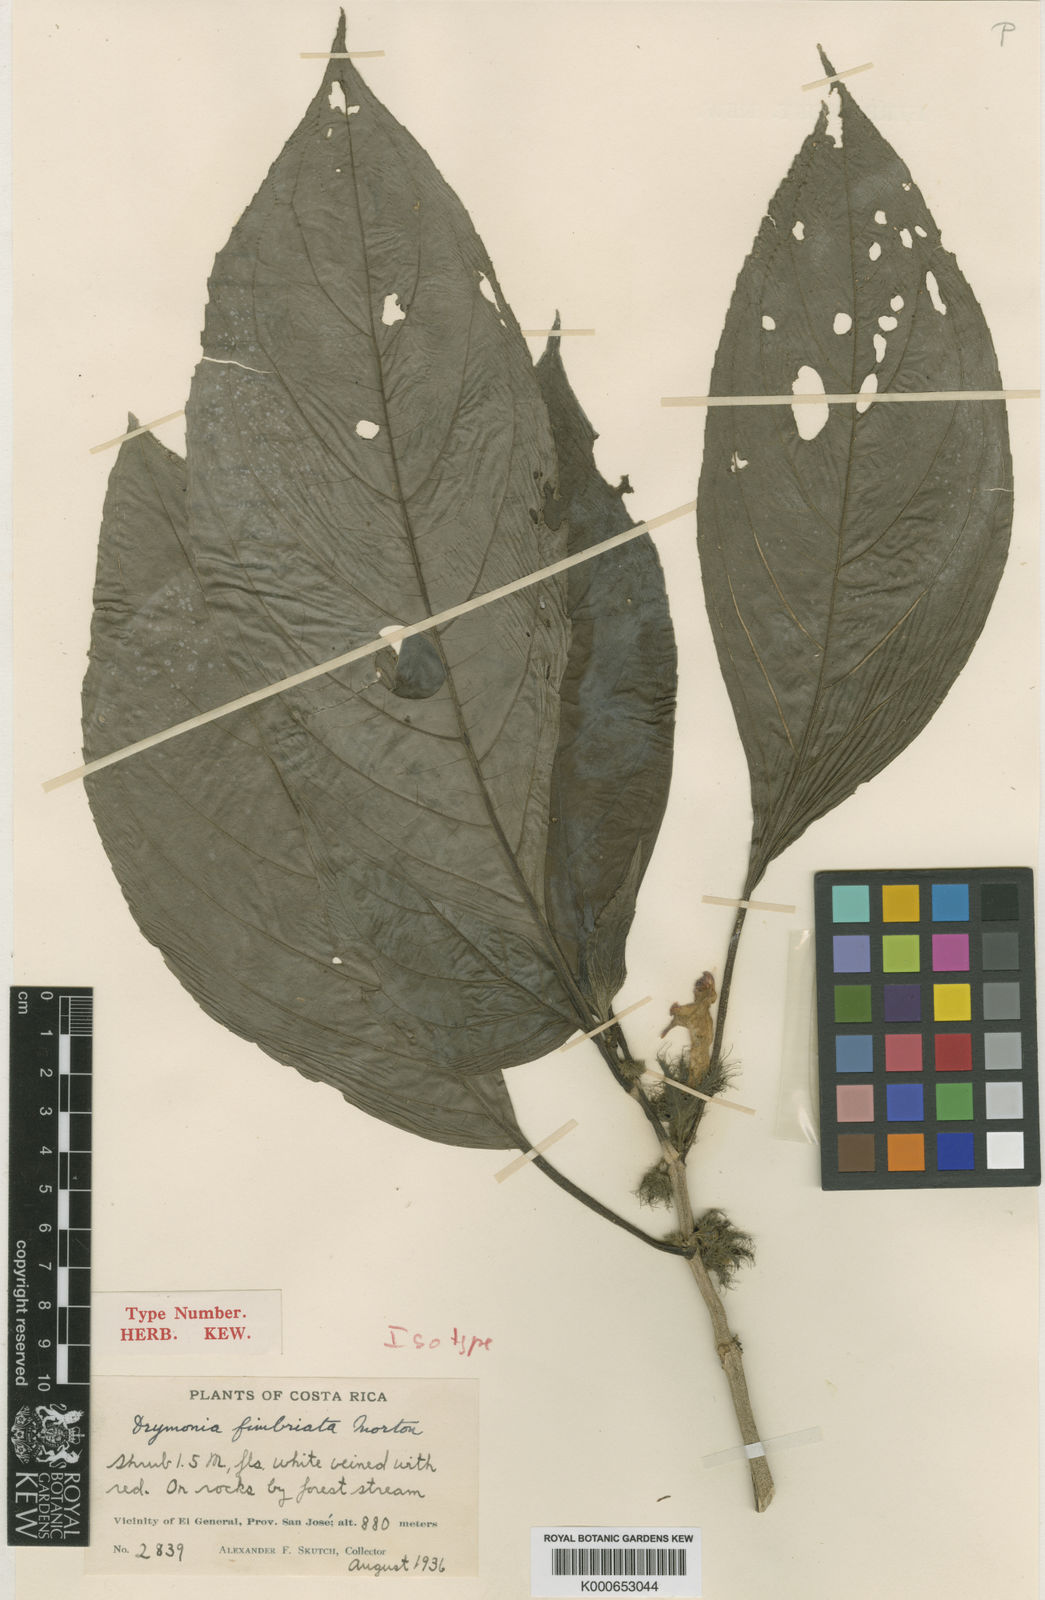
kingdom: Plantae
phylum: Tracheophyta
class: Magnoliopsida
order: Lamiales
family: Gesneriaceae
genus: Drymonia
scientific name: Drymonia fimbriata
